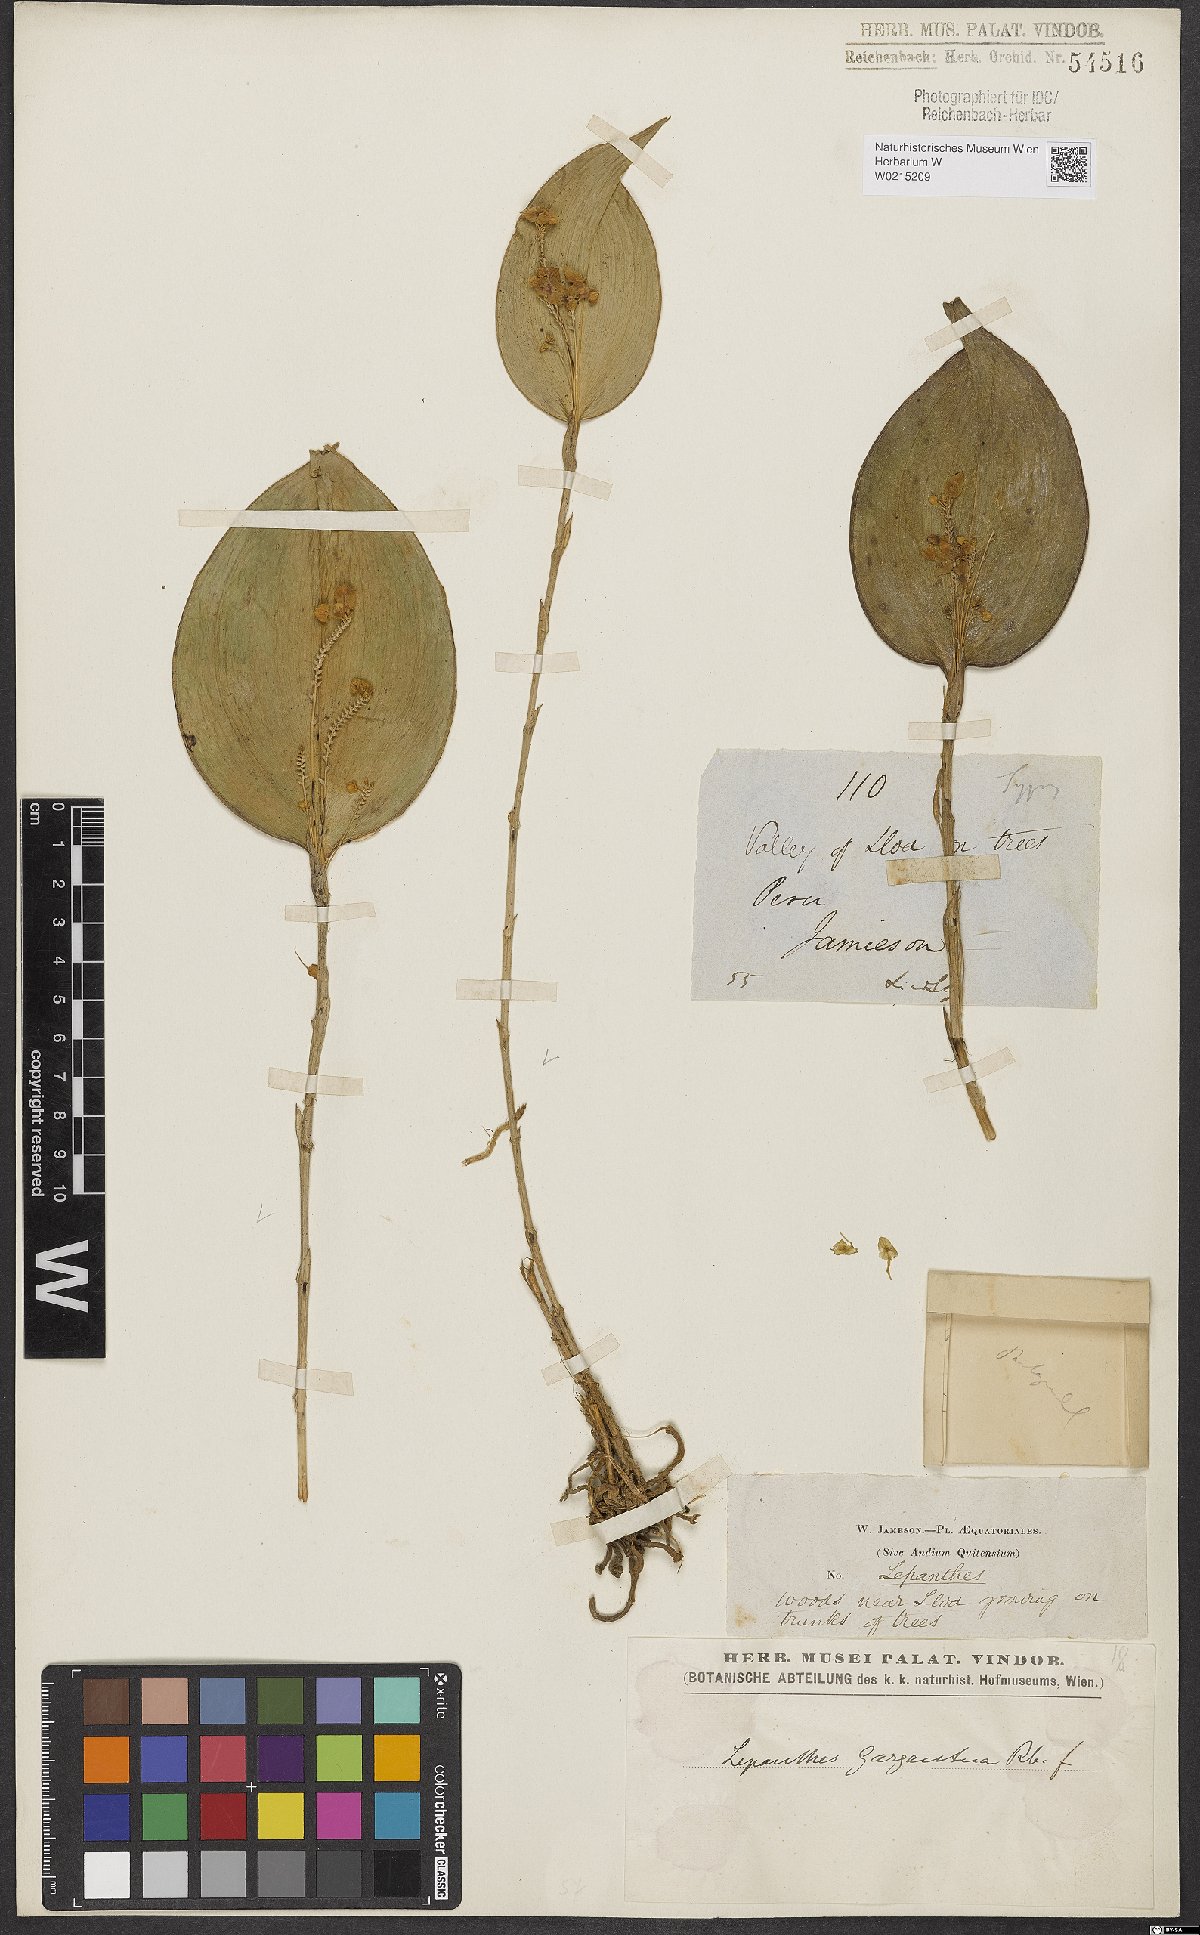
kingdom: Plantae
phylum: Tracheophyta
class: Liliopsida
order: Asparagales
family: Orchidaceae
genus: Lepanthes
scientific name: Lepanthes
